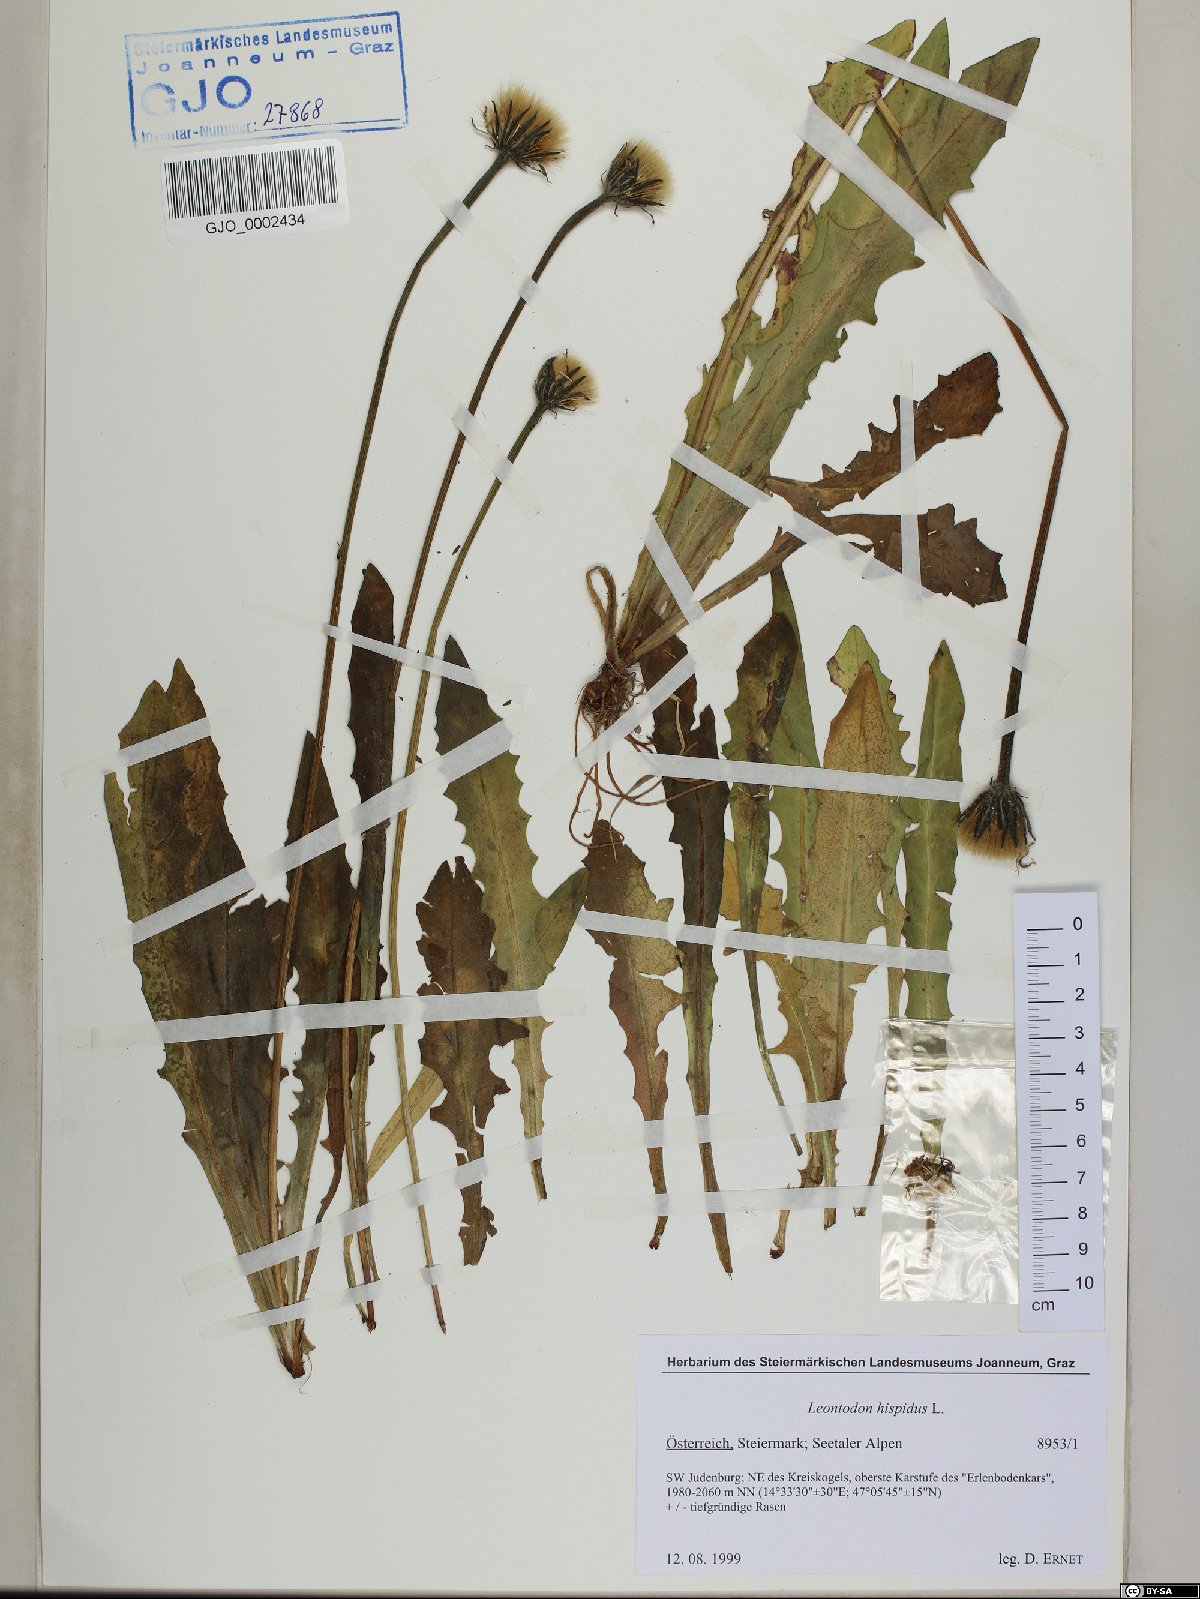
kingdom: Plantae
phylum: Tracheophyta
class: Magnoliopsida
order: Asterales
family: Asteraceae
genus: Leontodon
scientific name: Leontodon hispidus
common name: Rough hawkbit
